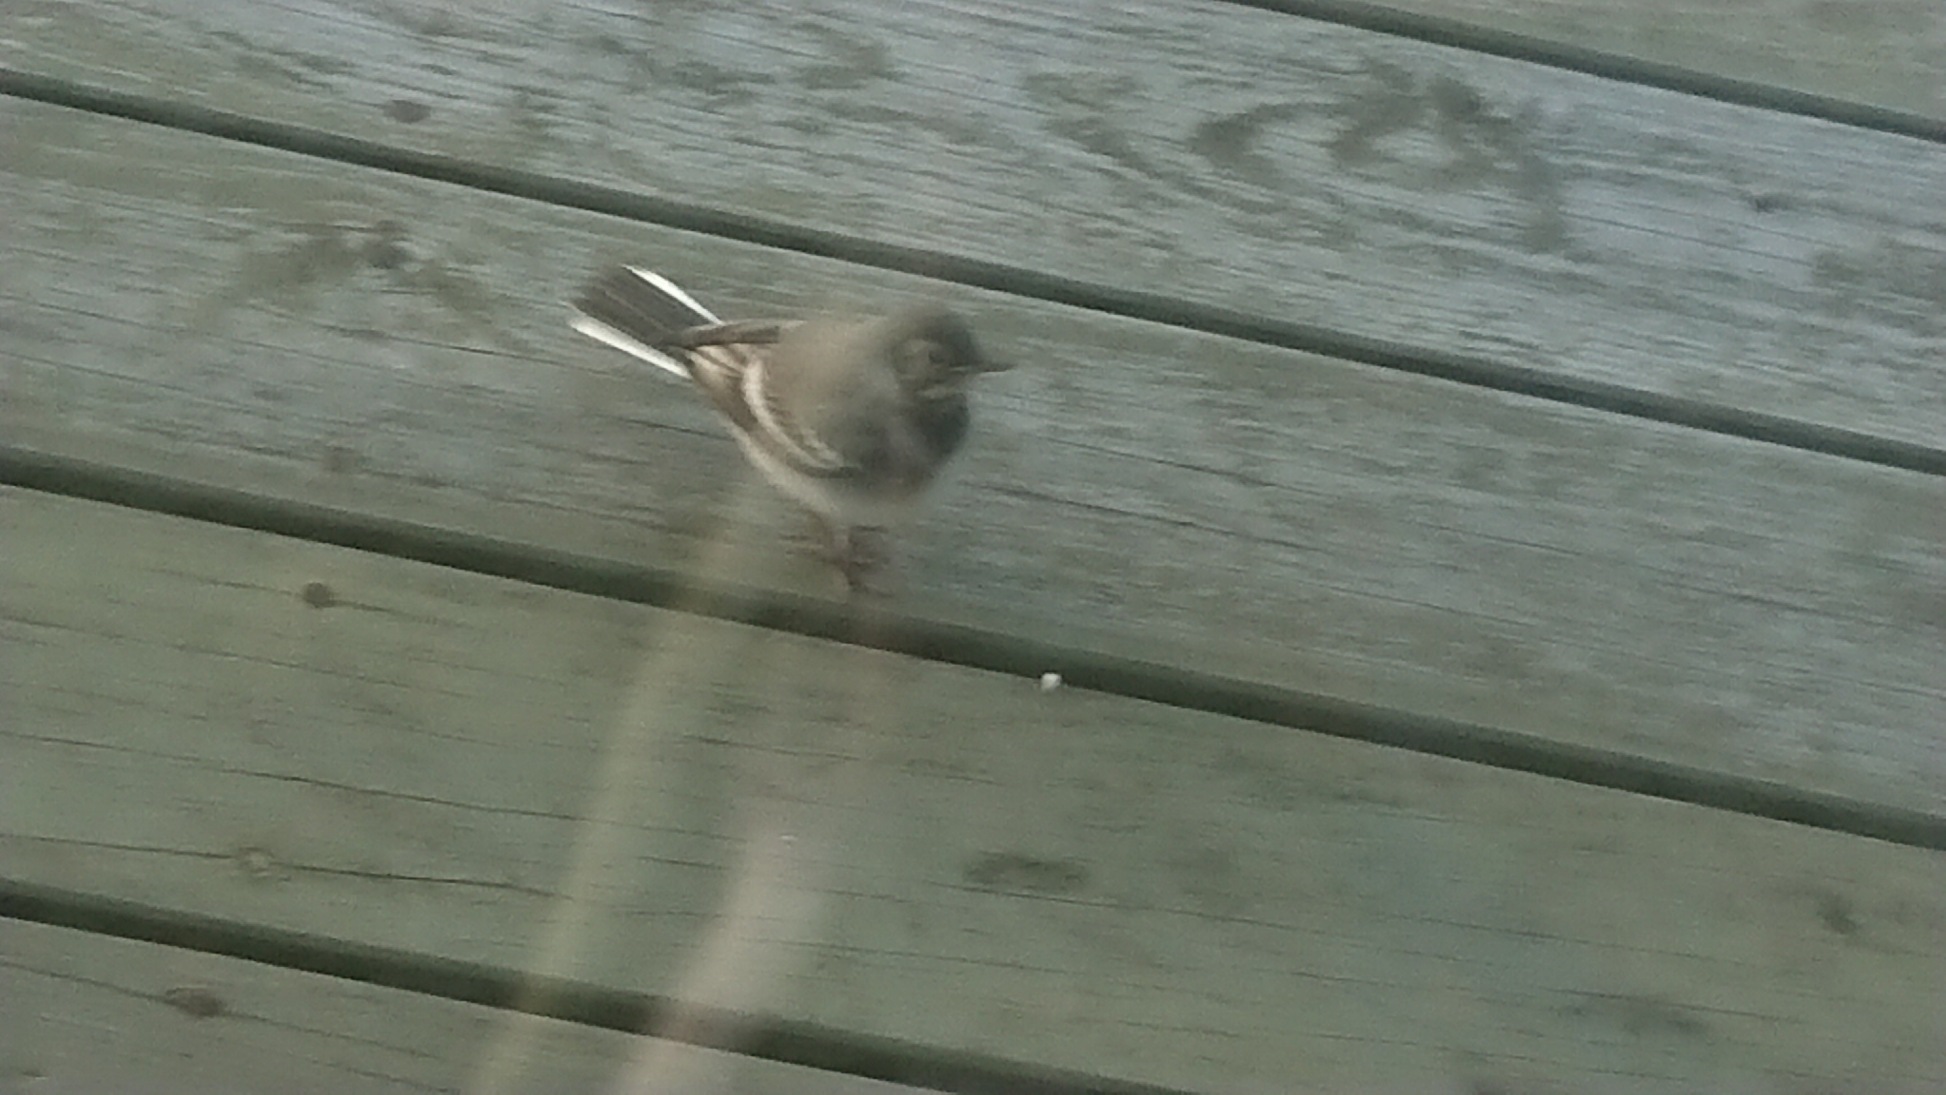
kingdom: Animalia
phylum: Chordata
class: Aves
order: Passeriformes
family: Motacillidae
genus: Motacilla
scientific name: Motacilla alba
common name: Hvid vipstjert
